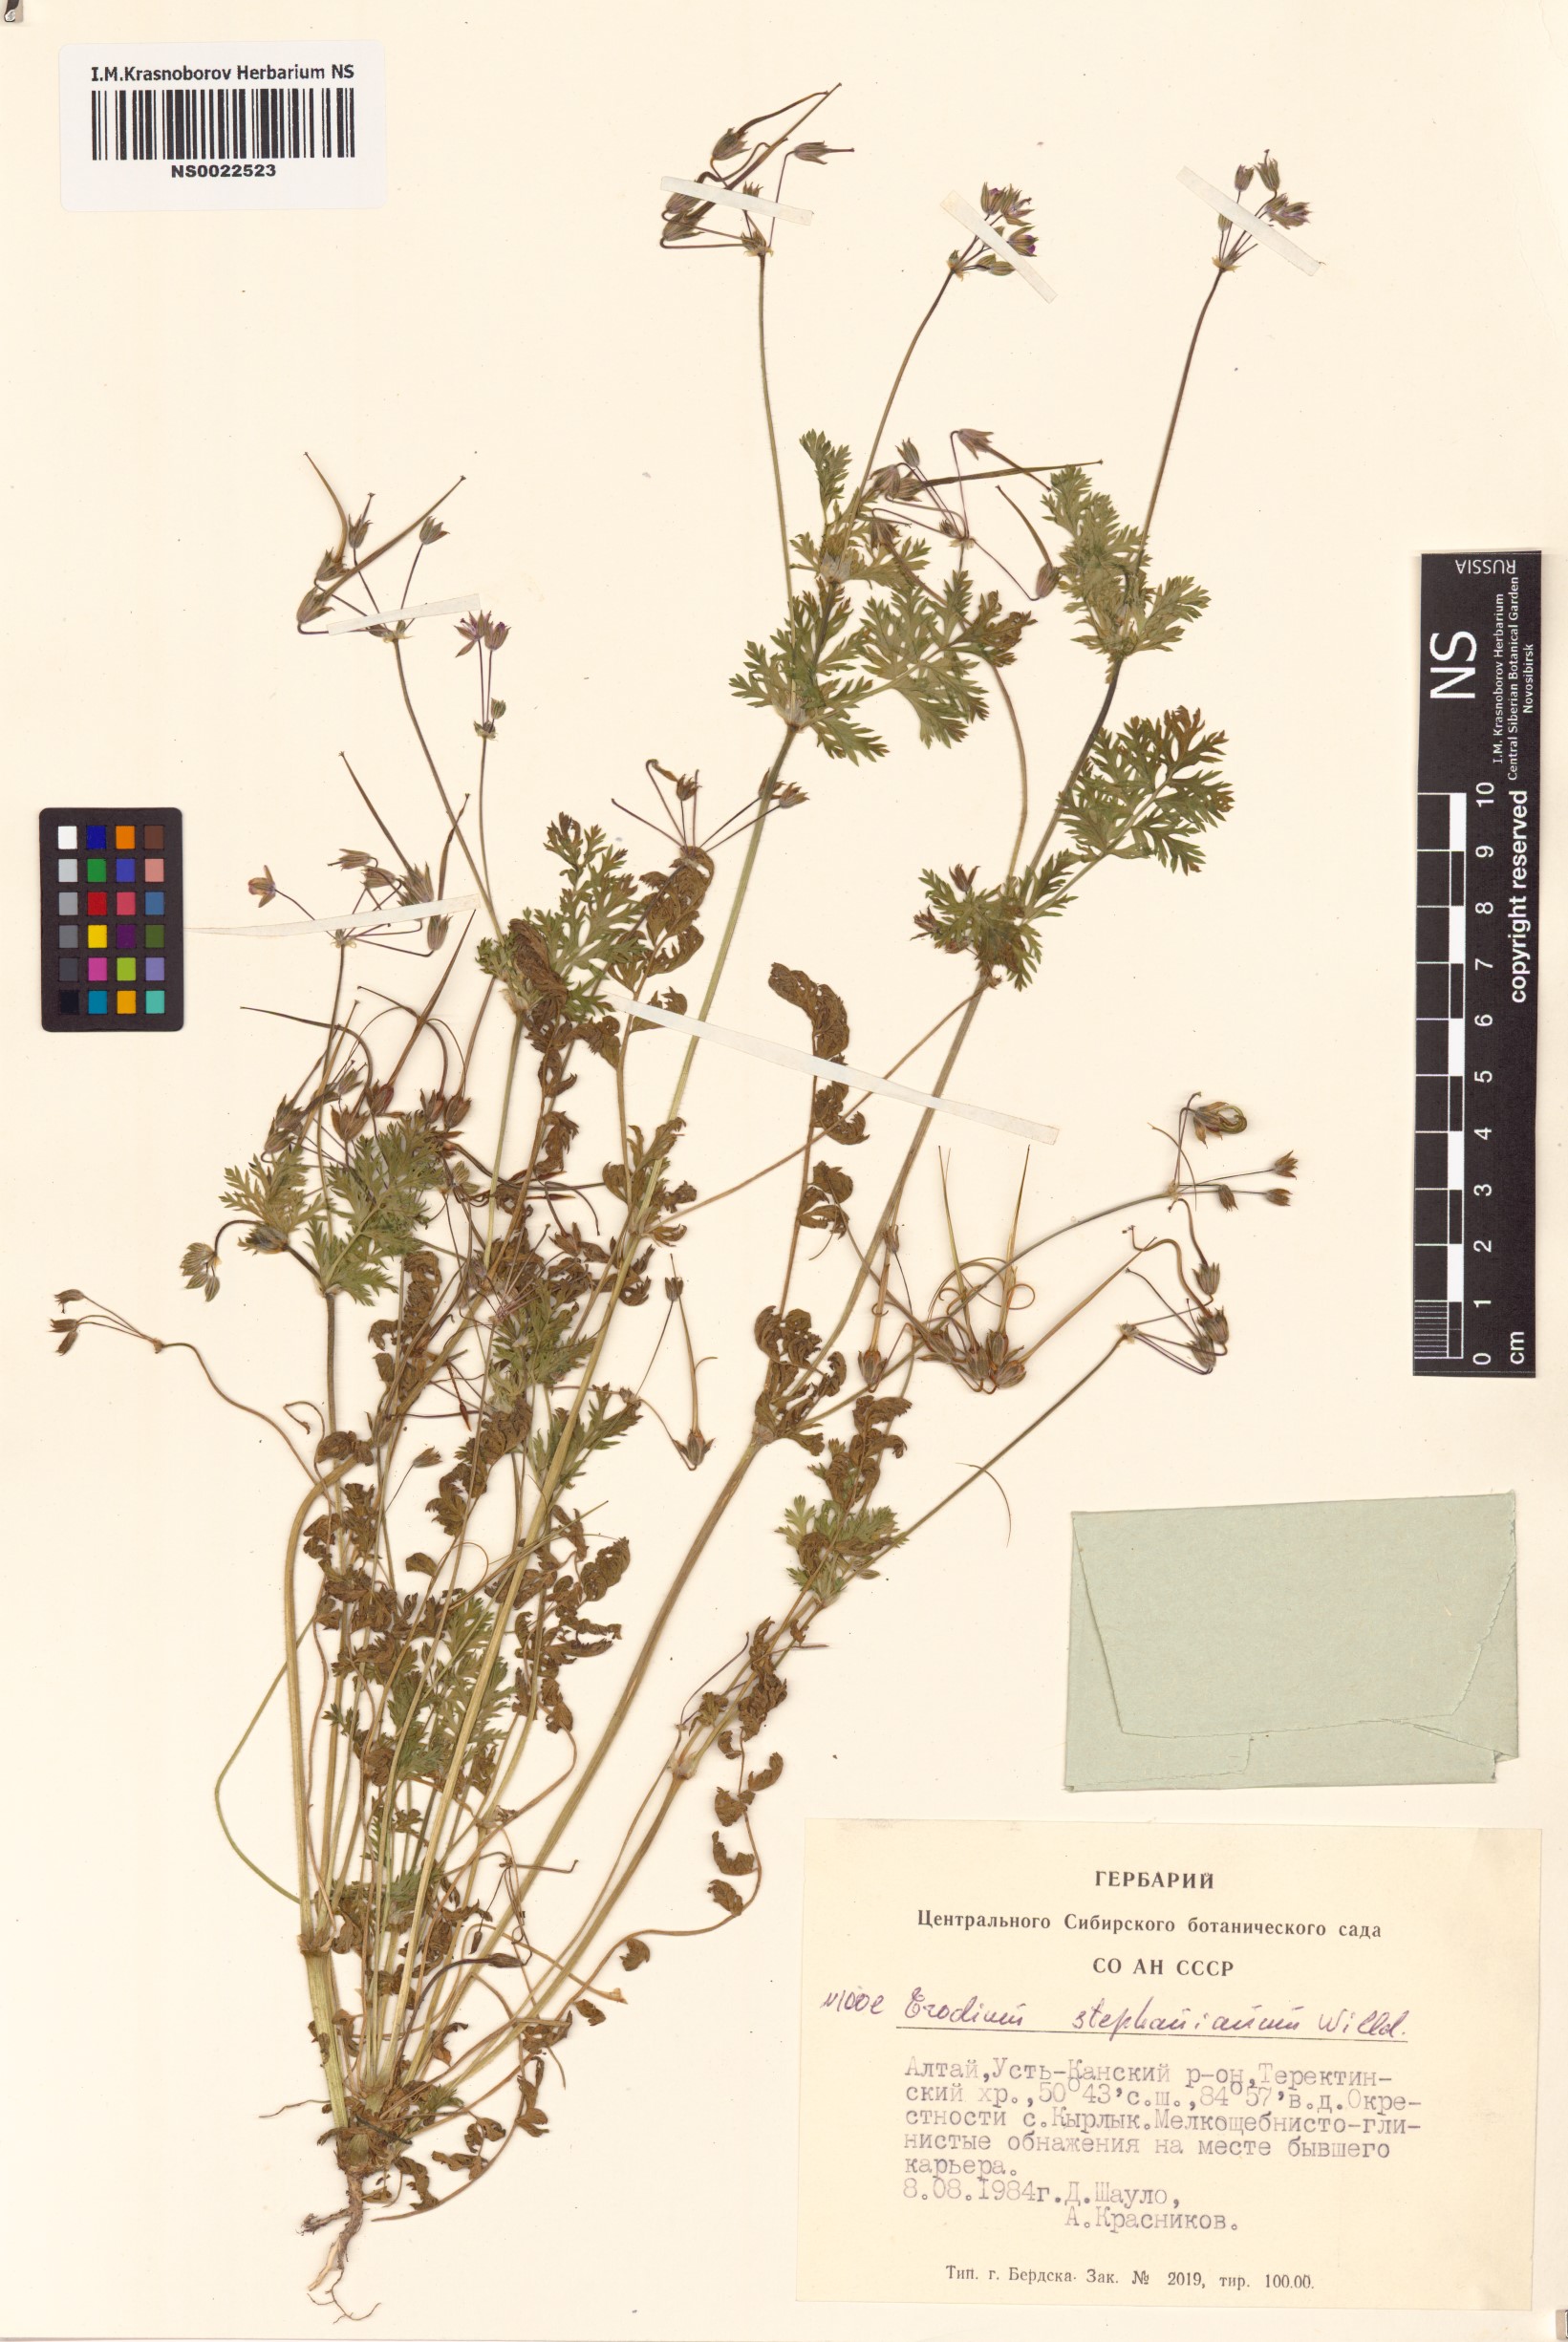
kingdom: Plantae
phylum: Tracheophyta
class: Magnoliopsida
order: Geraniales
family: Geraniaceae
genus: Erodium
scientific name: Erodium stephanianum
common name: Stephen's stork's bill
